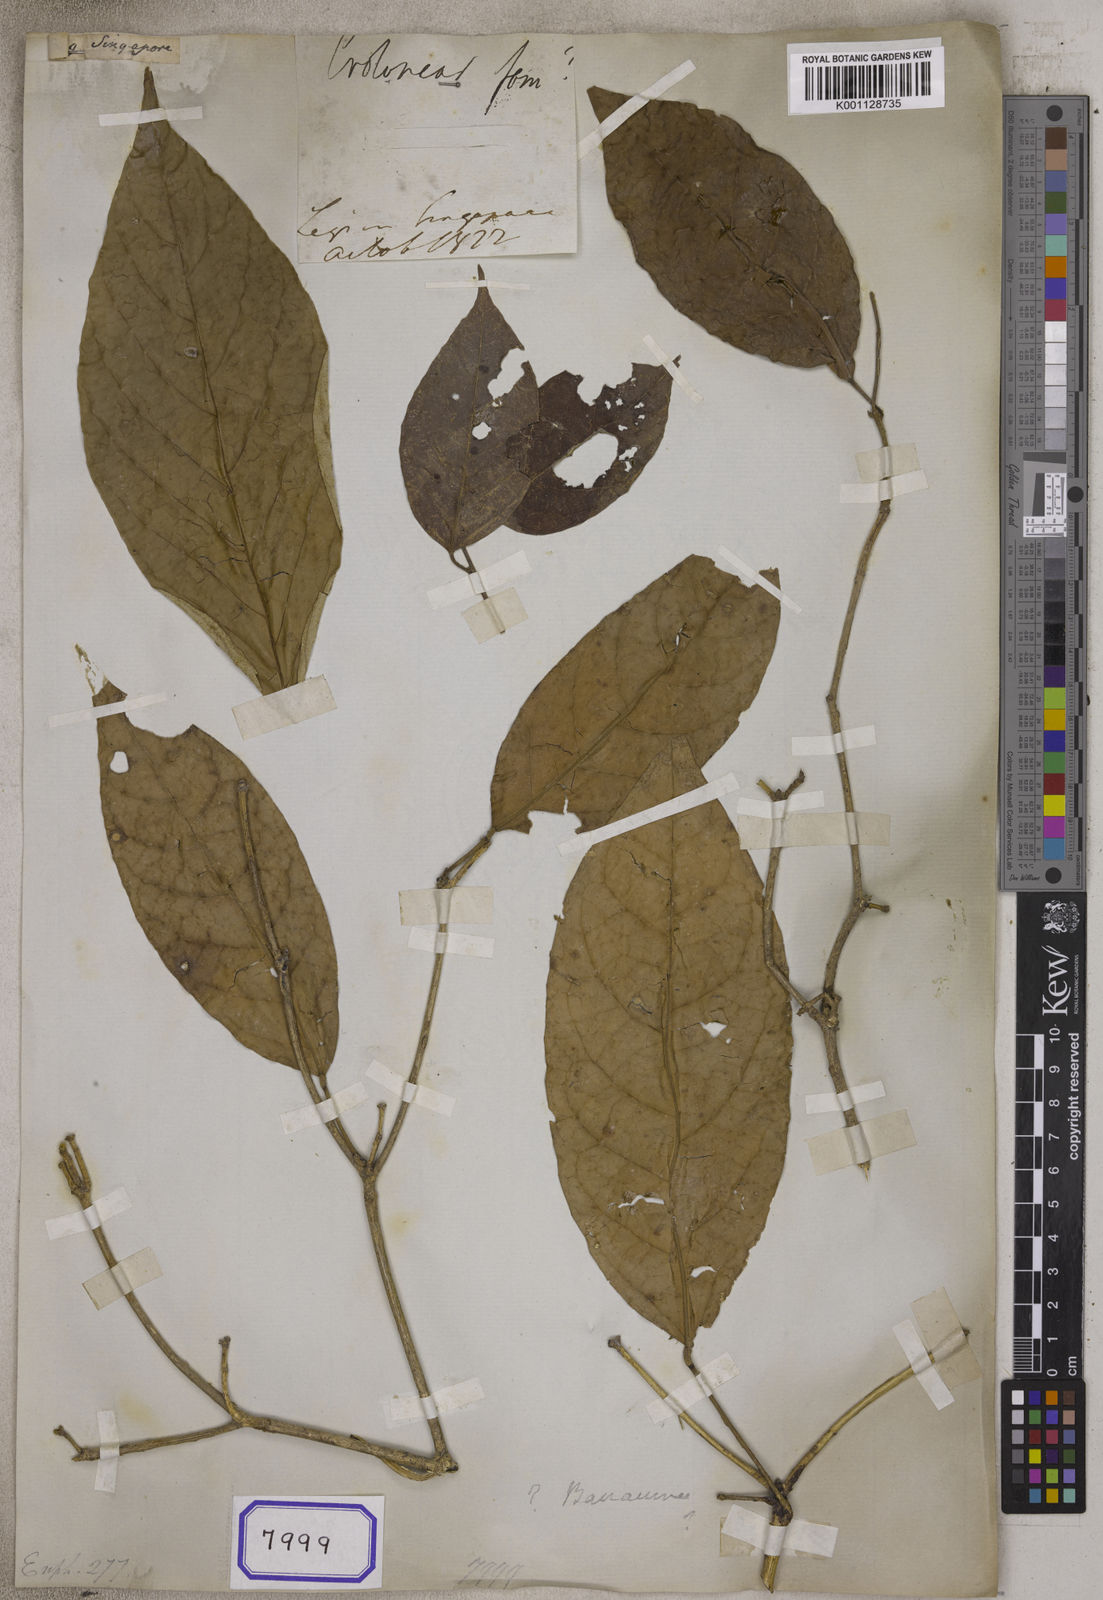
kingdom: Plantae
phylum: Tracheophyta
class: Magnoliopsida
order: Malpighiales
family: Euphorbiaceae
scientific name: Euphorbiaceae
